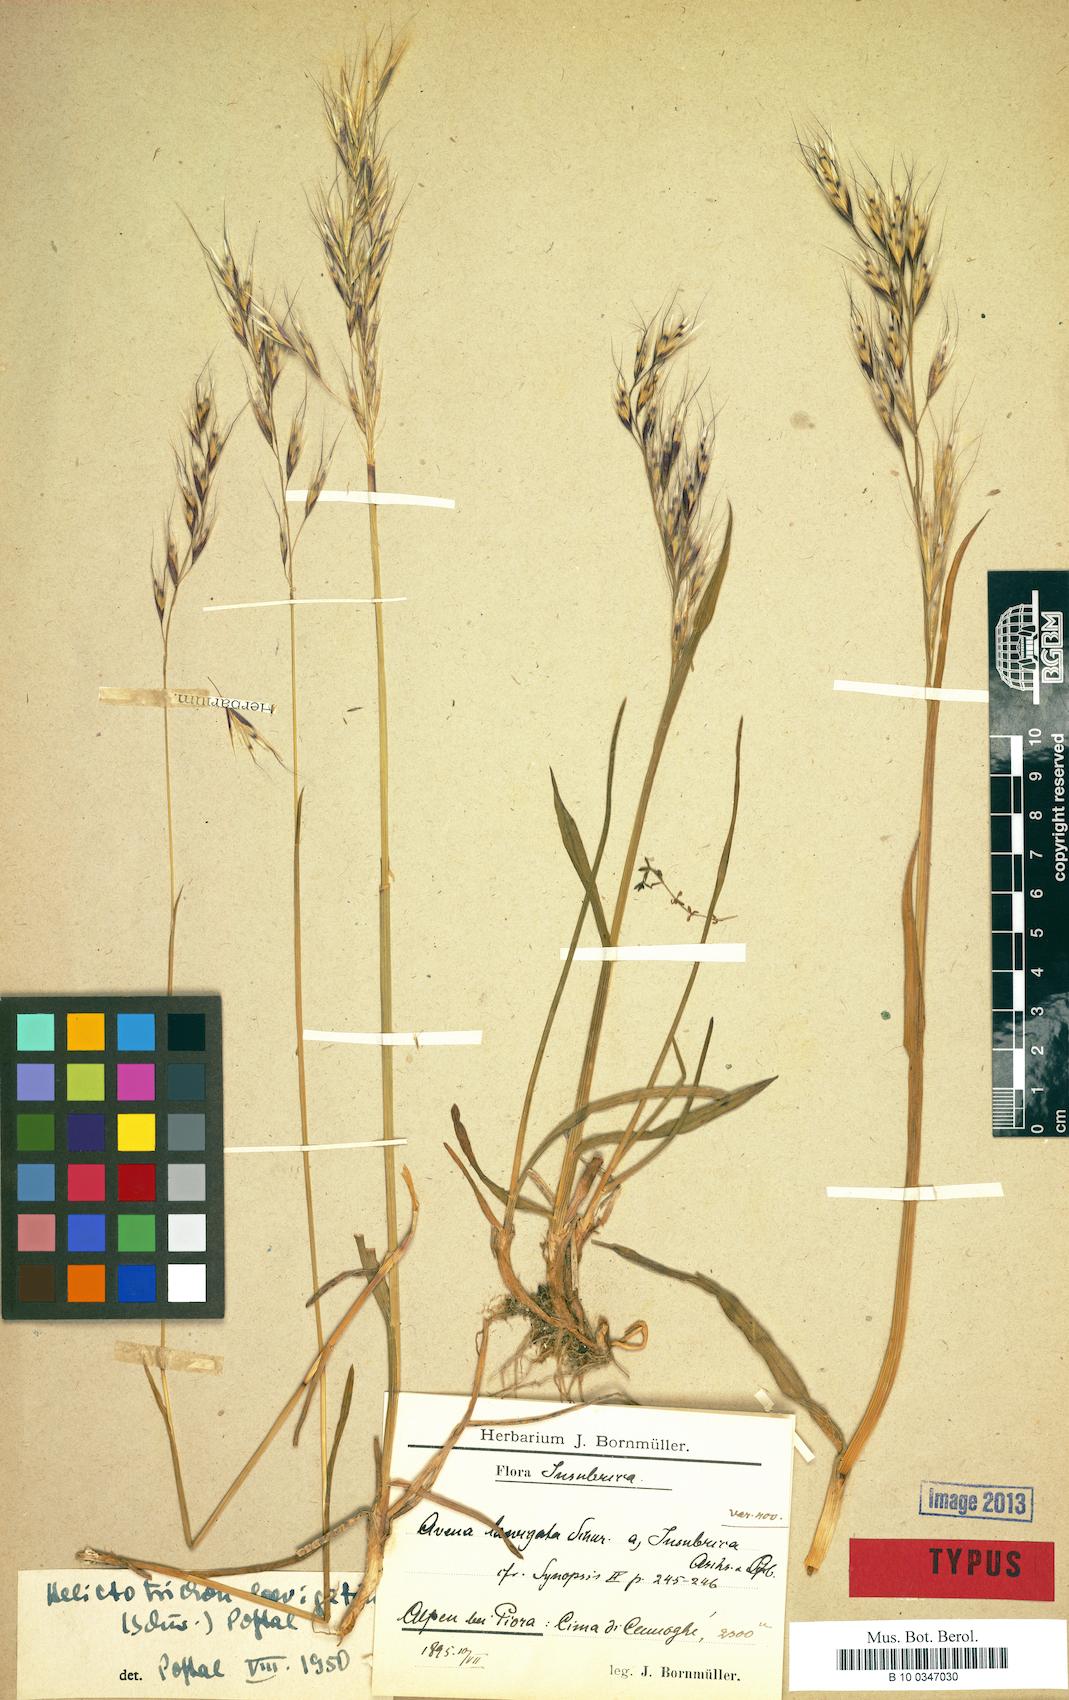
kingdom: Plantae
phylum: Tracheophyta
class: Liliopsida
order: Poales
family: Poaceae
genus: Avenula
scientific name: Avenula pubescens
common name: Downy alpine oatgrass
